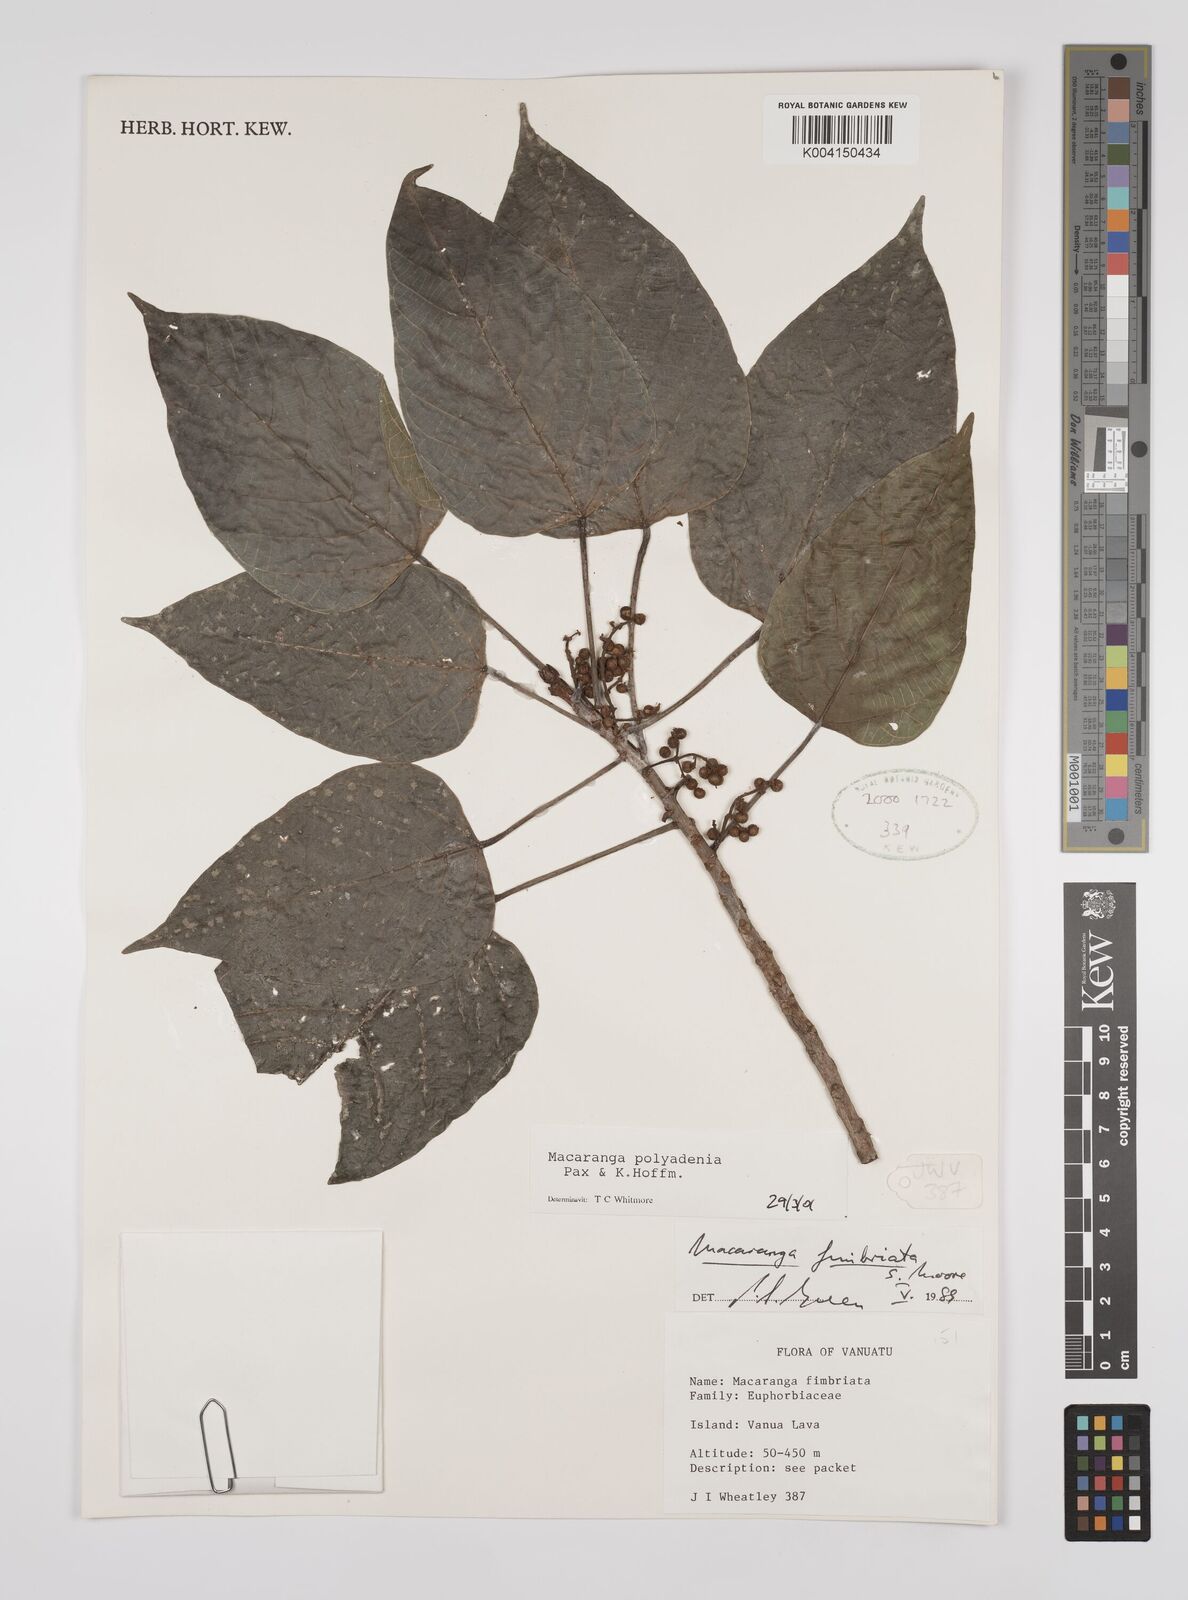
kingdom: Plantae
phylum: Tracheophyta
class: Magnoliopsida
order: Malpighiales
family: Euphorbiaceae
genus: Macaranga
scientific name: Macaranga polyadenia
